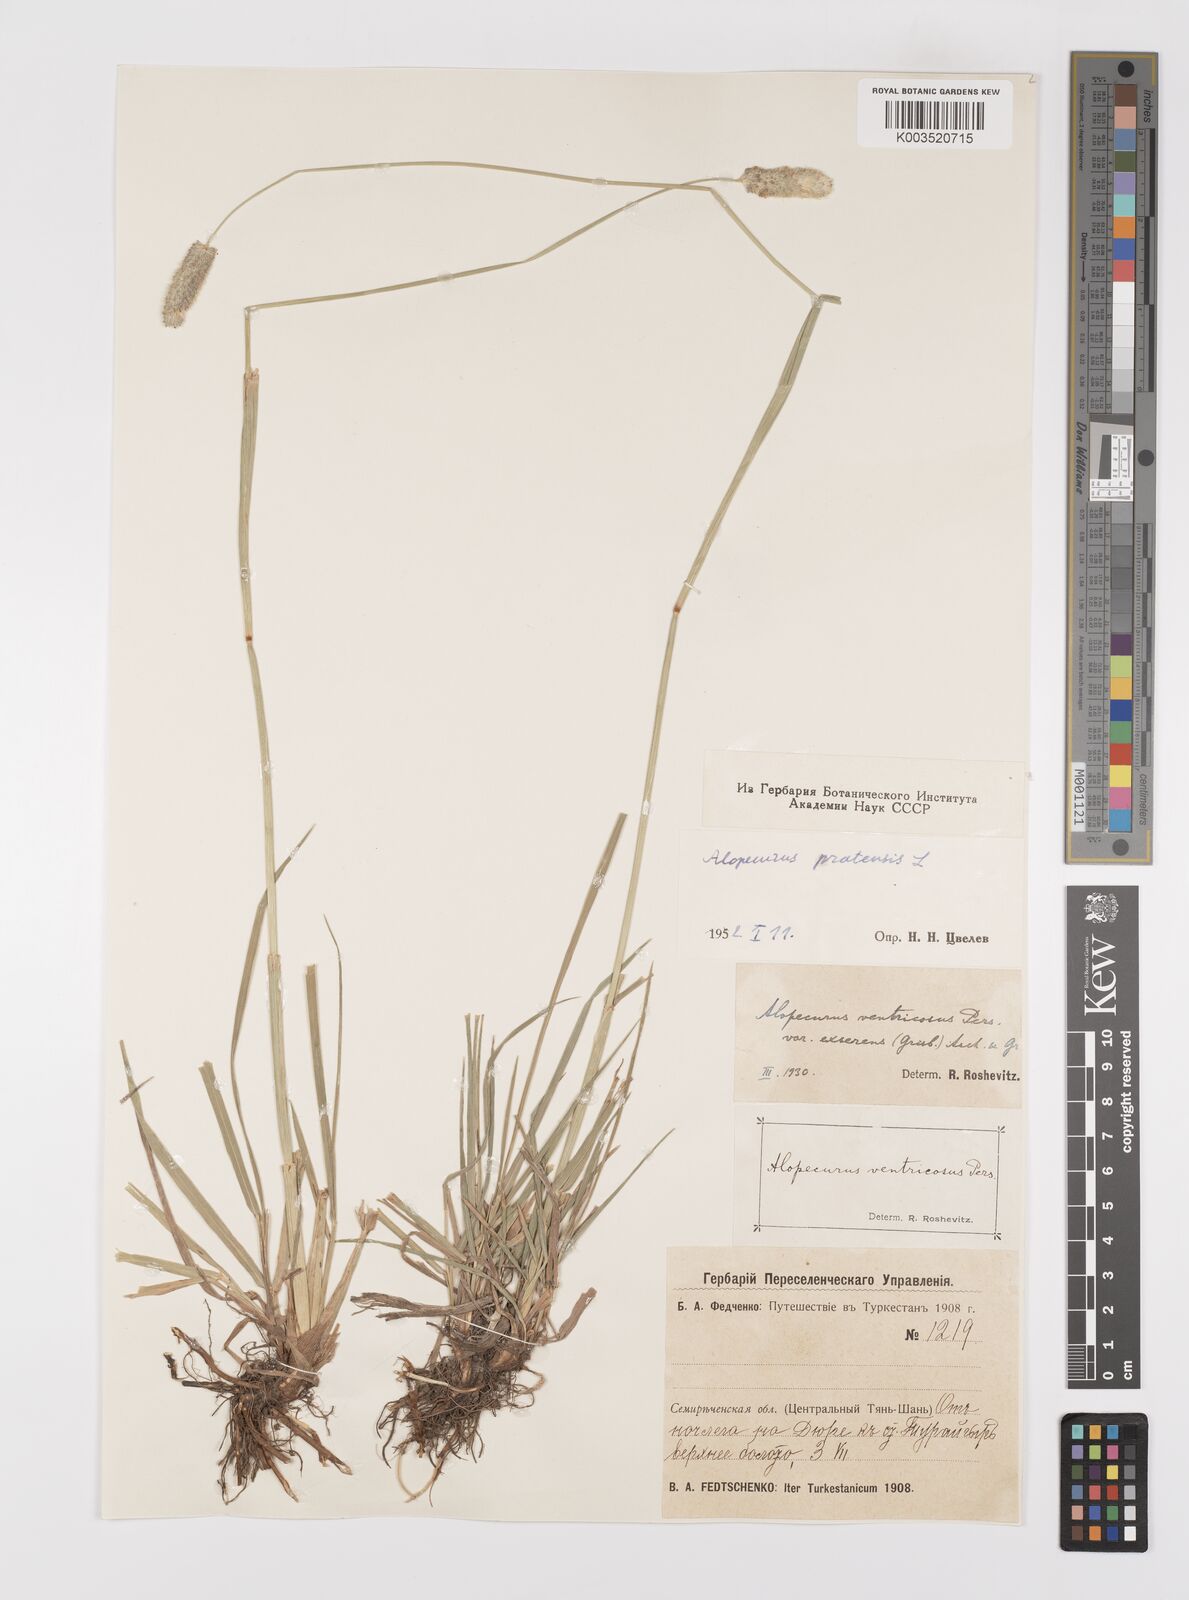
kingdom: Plantae
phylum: Tracheophyta
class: Liliopsida
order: Poales
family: Poaceae
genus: Alopecurus
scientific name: Alopecurus pratensis
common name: Meadow foxtail
